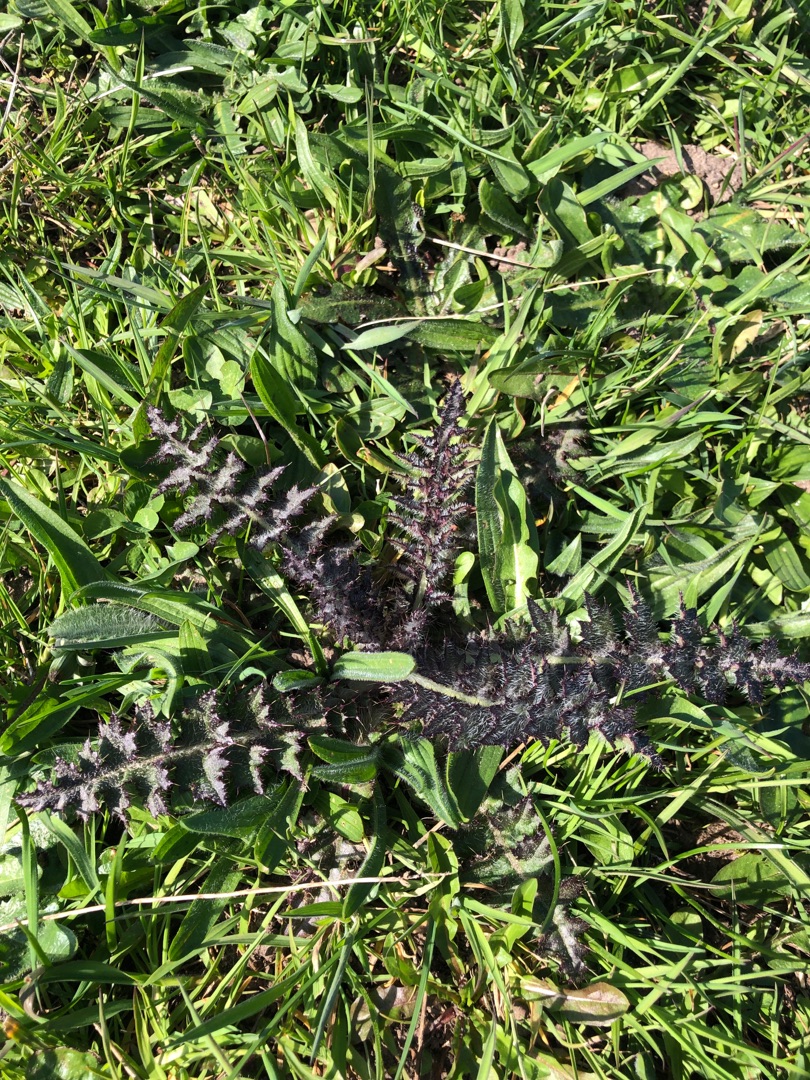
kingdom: Plantae
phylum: Tracheophyta
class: Magnoliopsida
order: Asterales
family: Asteraceae
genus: Cirsium
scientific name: Cirsium palustre
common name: Kær-tidsel
